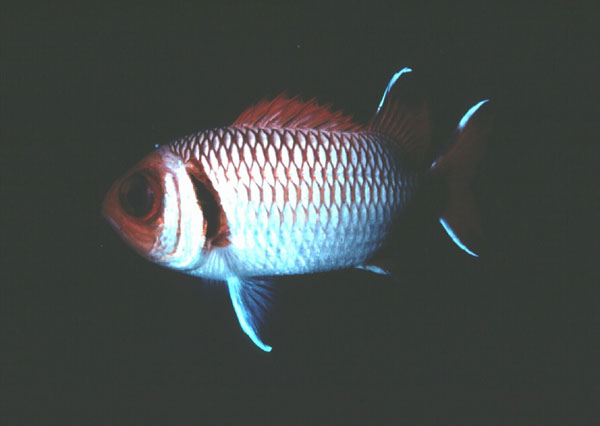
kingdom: Animalia
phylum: Chordata
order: Beryciformes
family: Holocentridae
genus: Myripristis
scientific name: Myripristis botche
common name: Blacktip soldierfish
